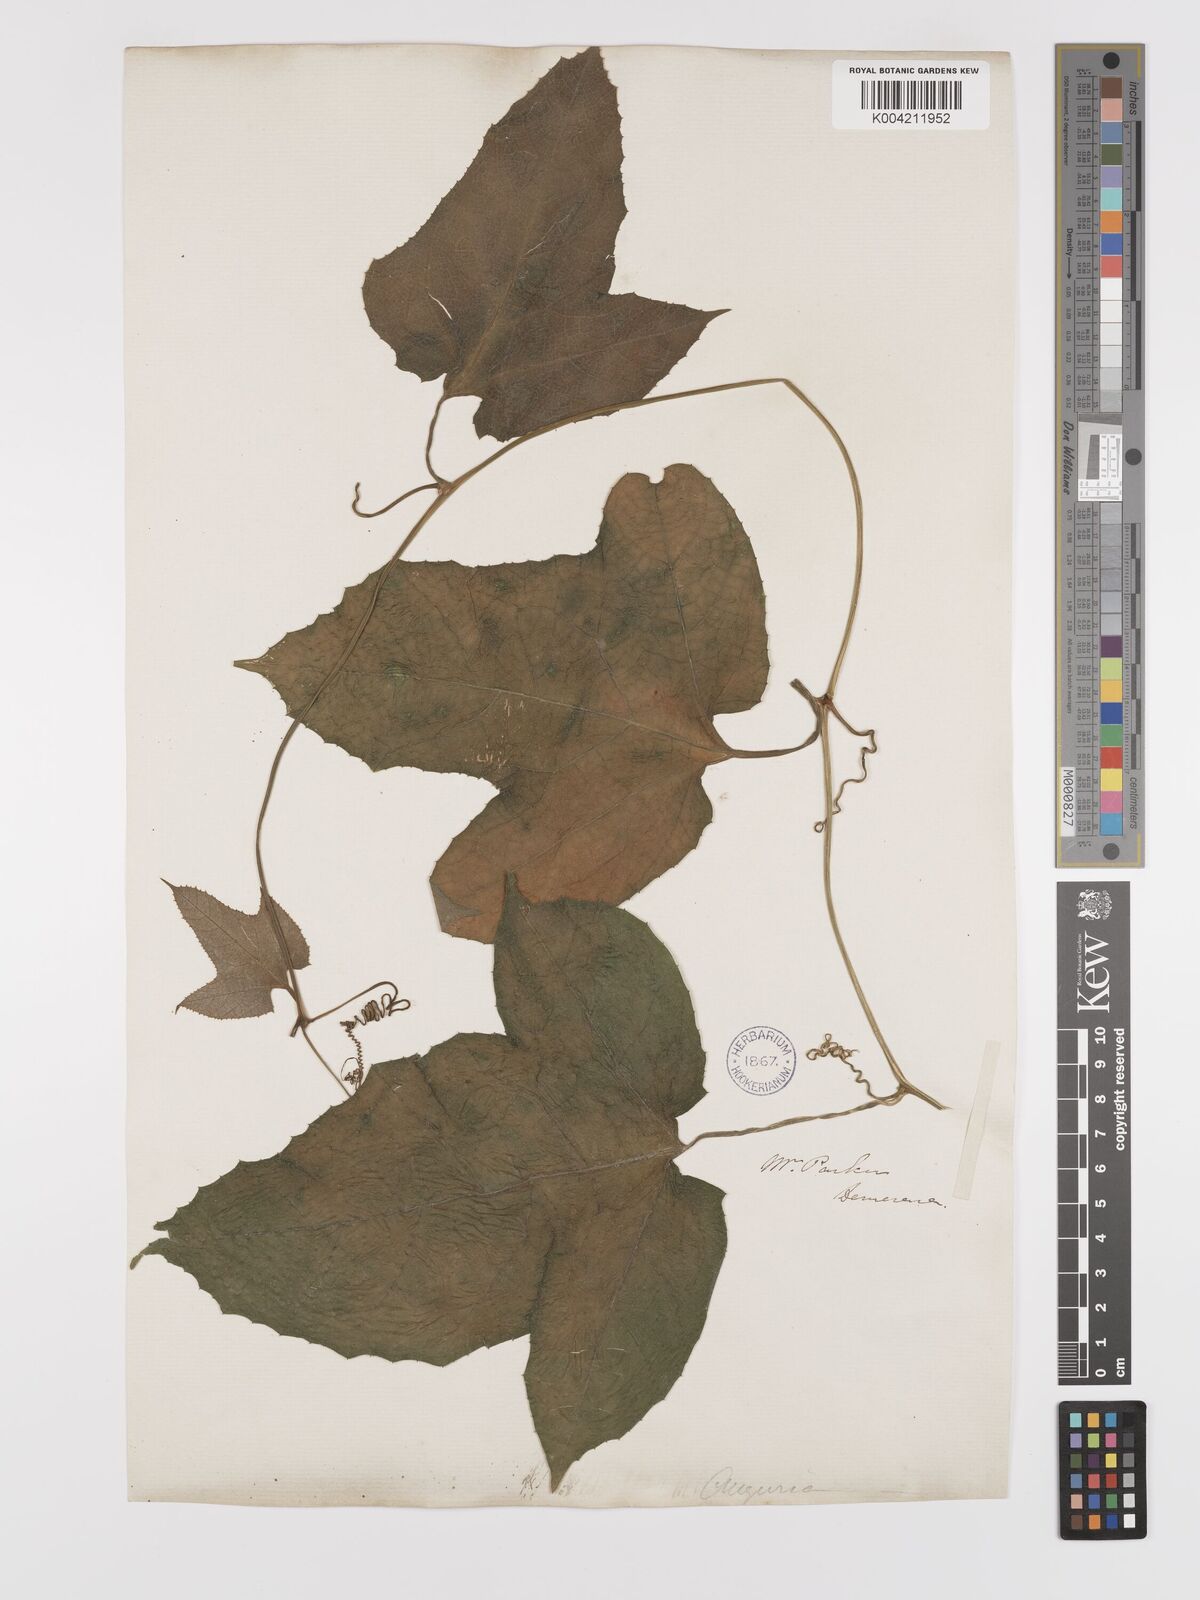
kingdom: Plantae
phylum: Tracheophyta
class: Magnoliopsida
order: Cucurbitales
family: Cucurbitaceae
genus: Wilbrandia
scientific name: Wilbrandia verticillata
